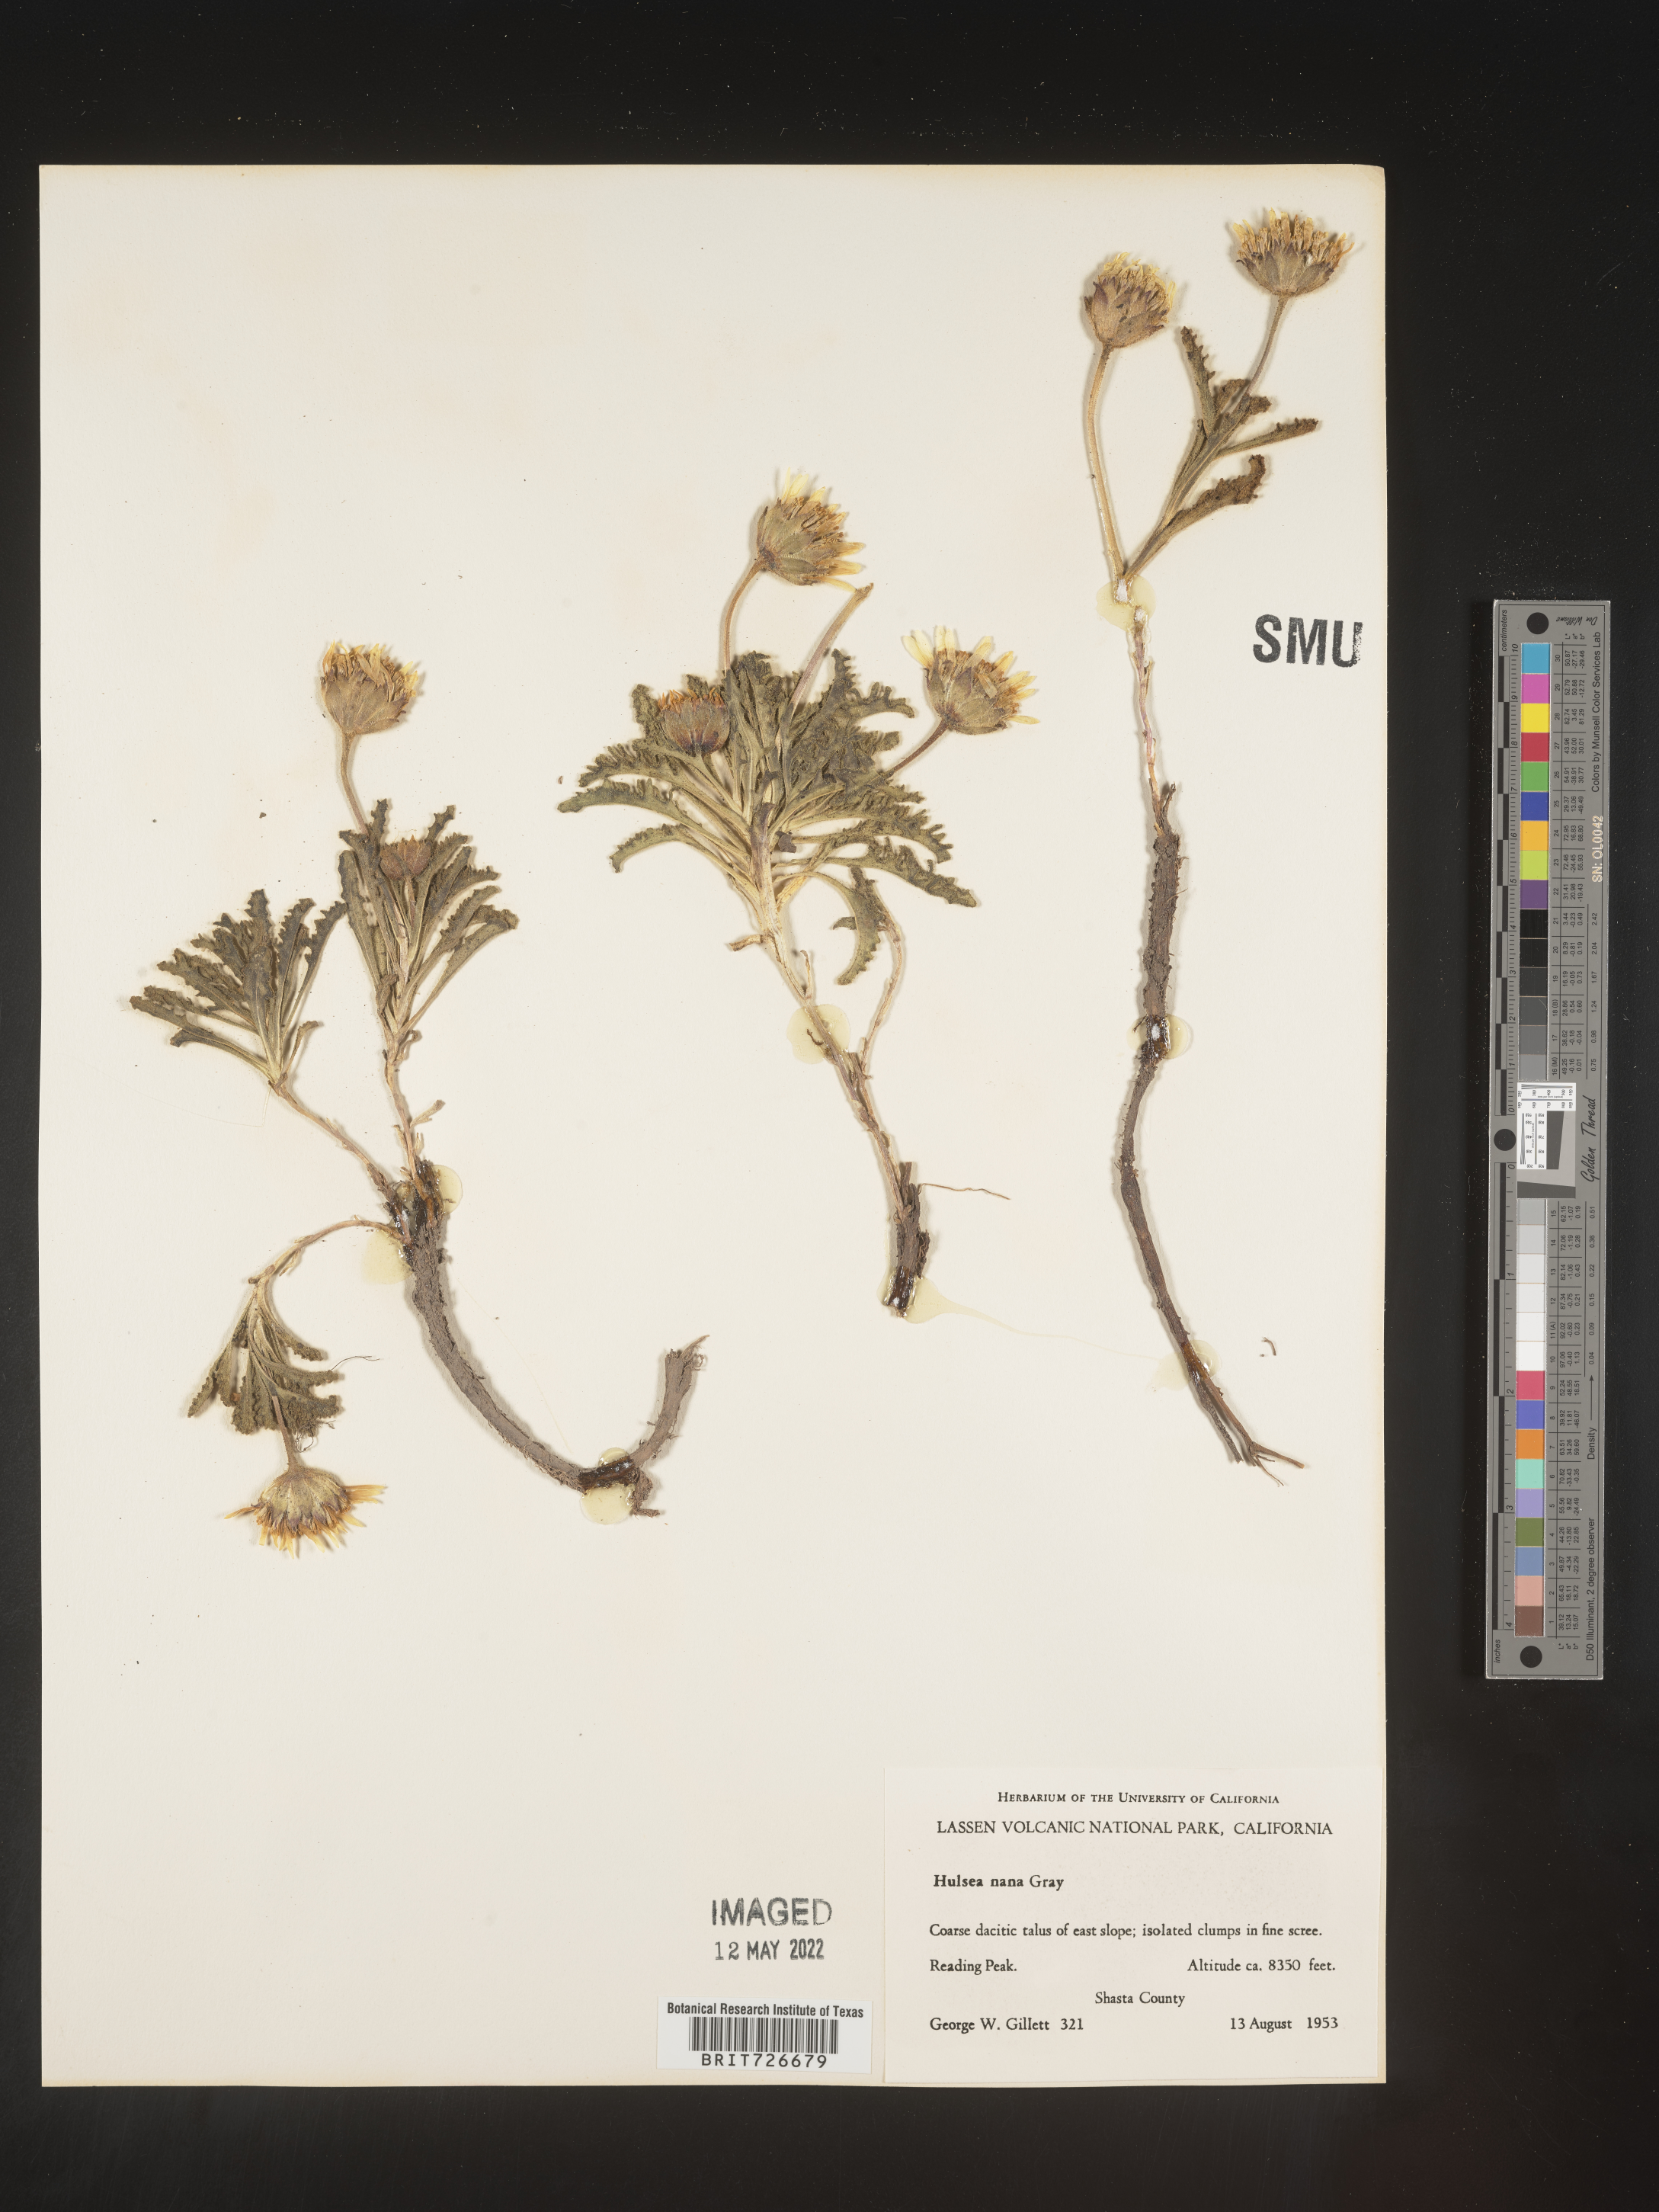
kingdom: Plantae
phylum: Tracheophyta
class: Magnoliopsida
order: Asterales
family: Asteraceae
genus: Hulsea
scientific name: Hulsea
